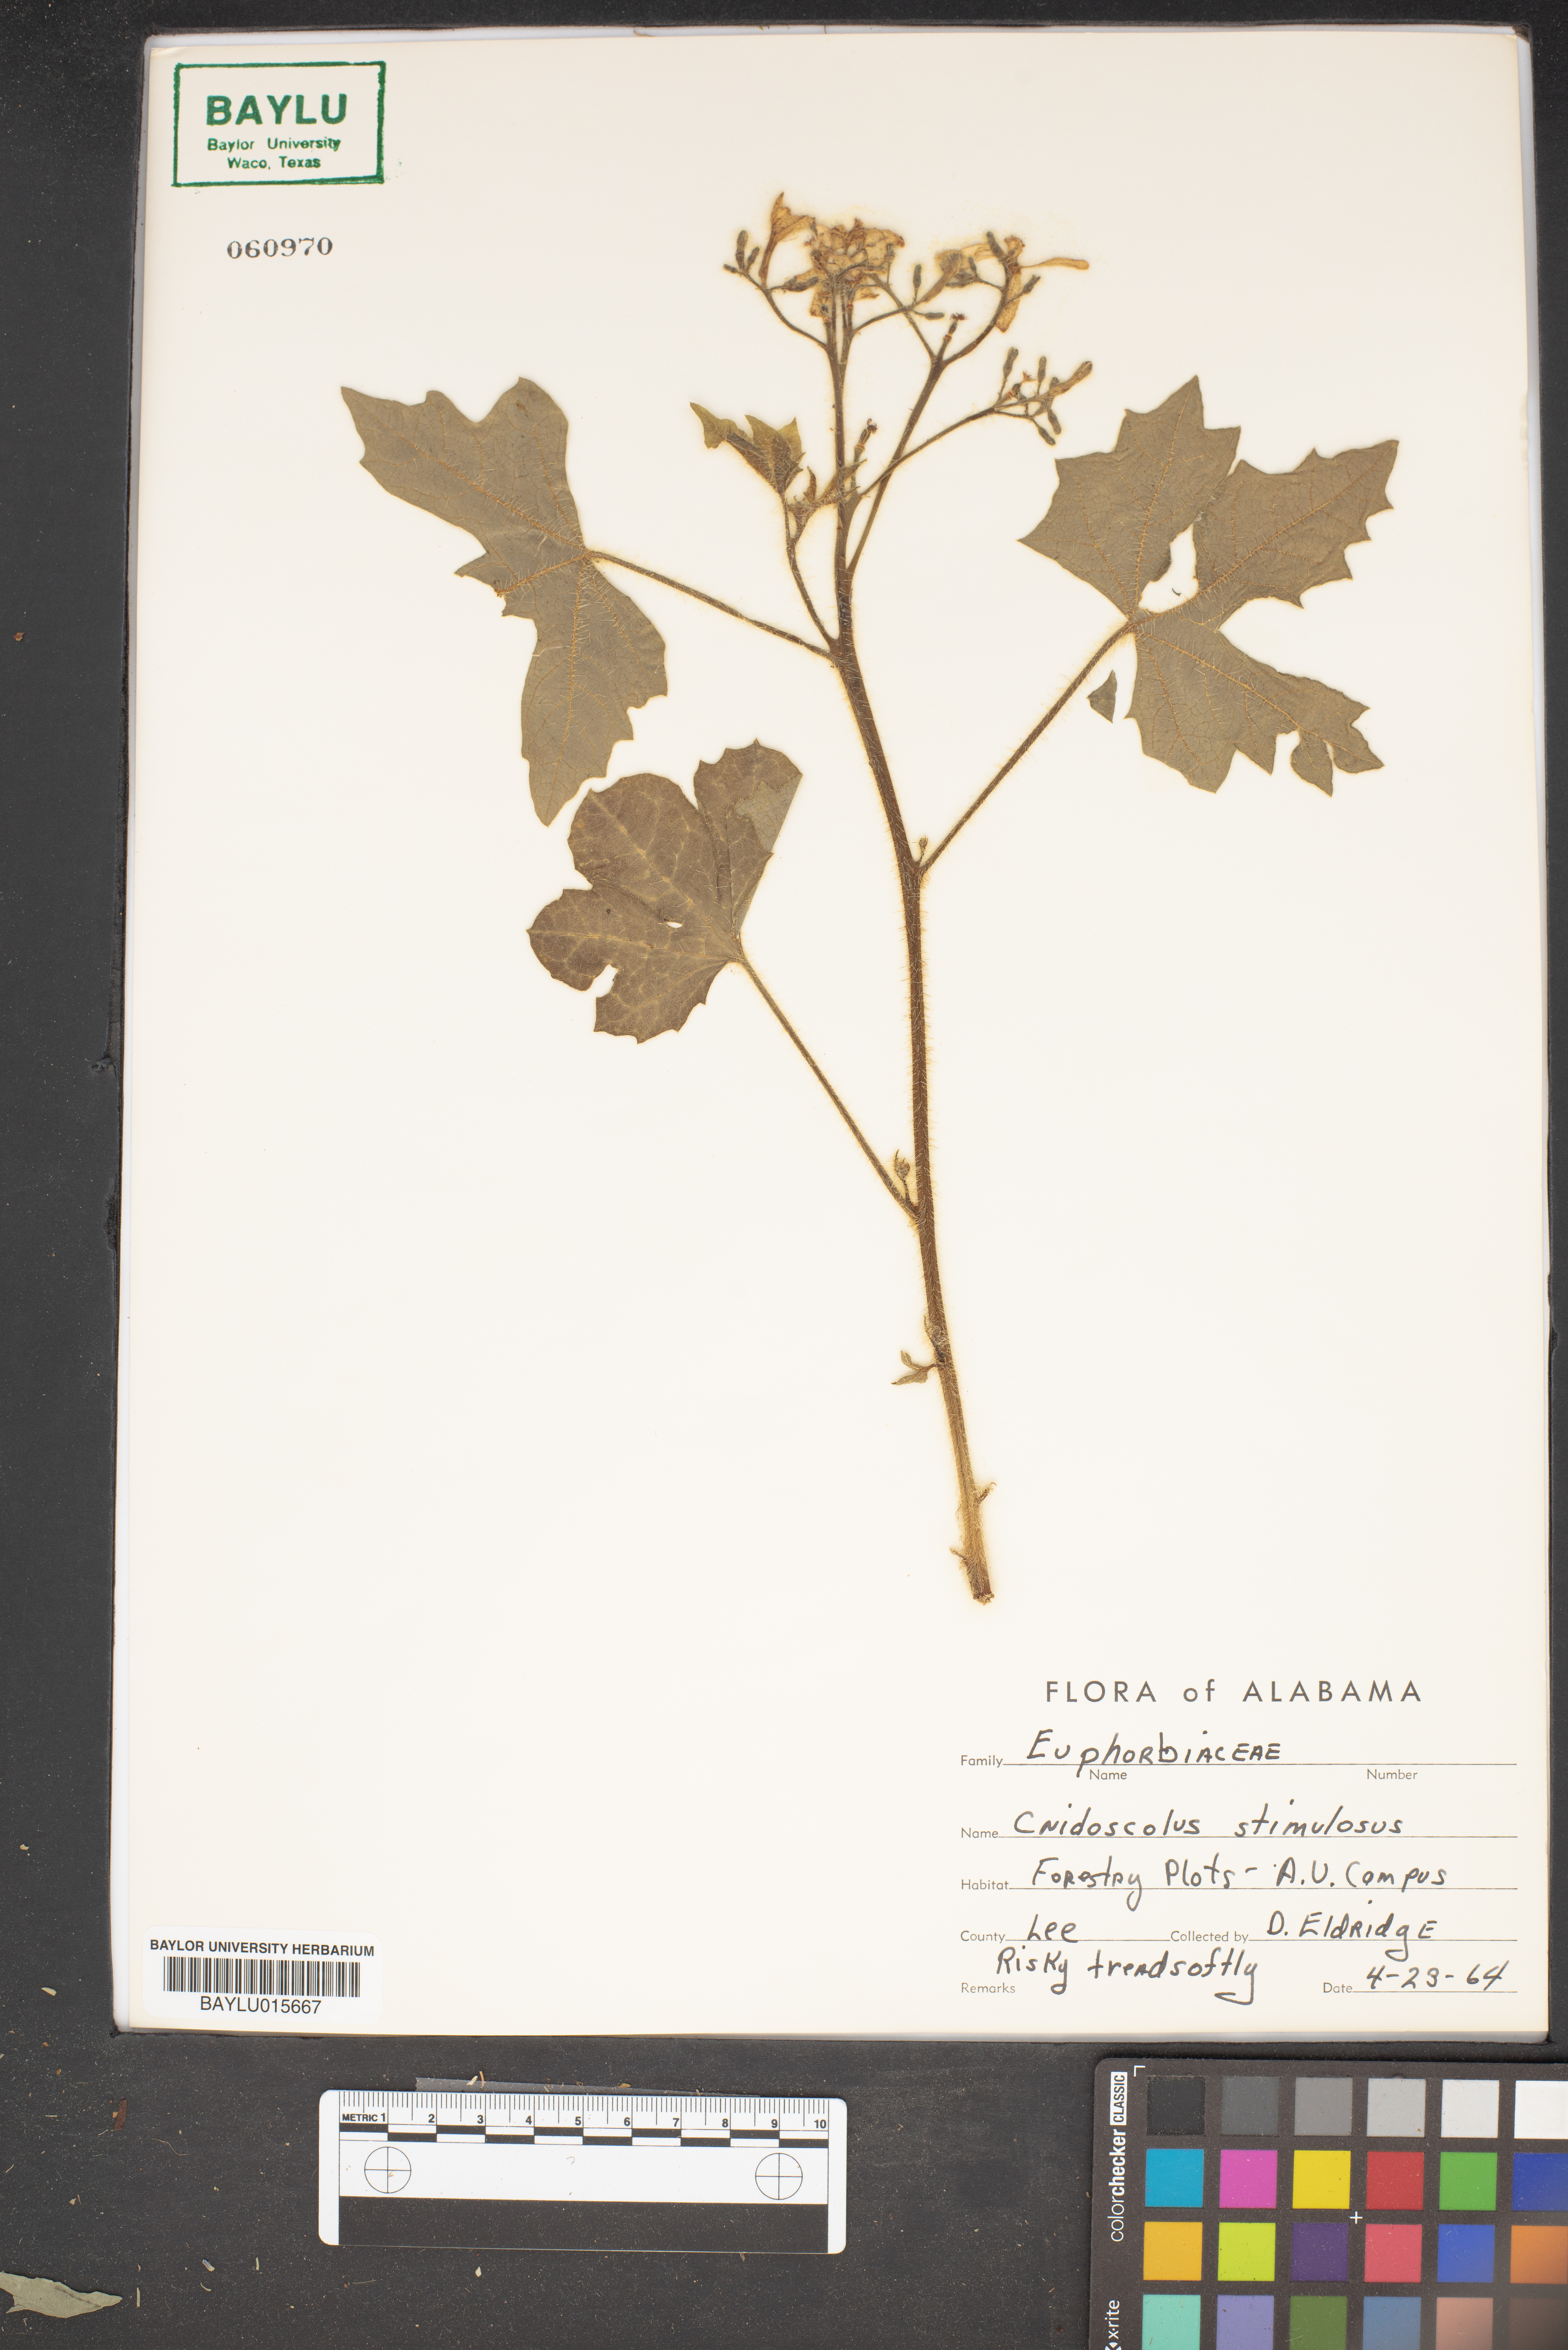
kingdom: Plantae
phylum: Tracheophyta
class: Magnoliopsida
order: Malpighiales
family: Euphorbiaceae
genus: Cnidoscolus
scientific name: Cnidoscolus stimulosus
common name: Bull-nettle
